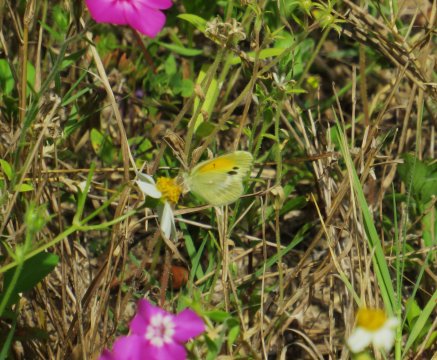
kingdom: Animalia
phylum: Arthropoda
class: Insecta
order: Lepidoptera
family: Pieridae
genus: Nathalis
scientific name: Nathalis iole
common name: Dainty Sulphur
